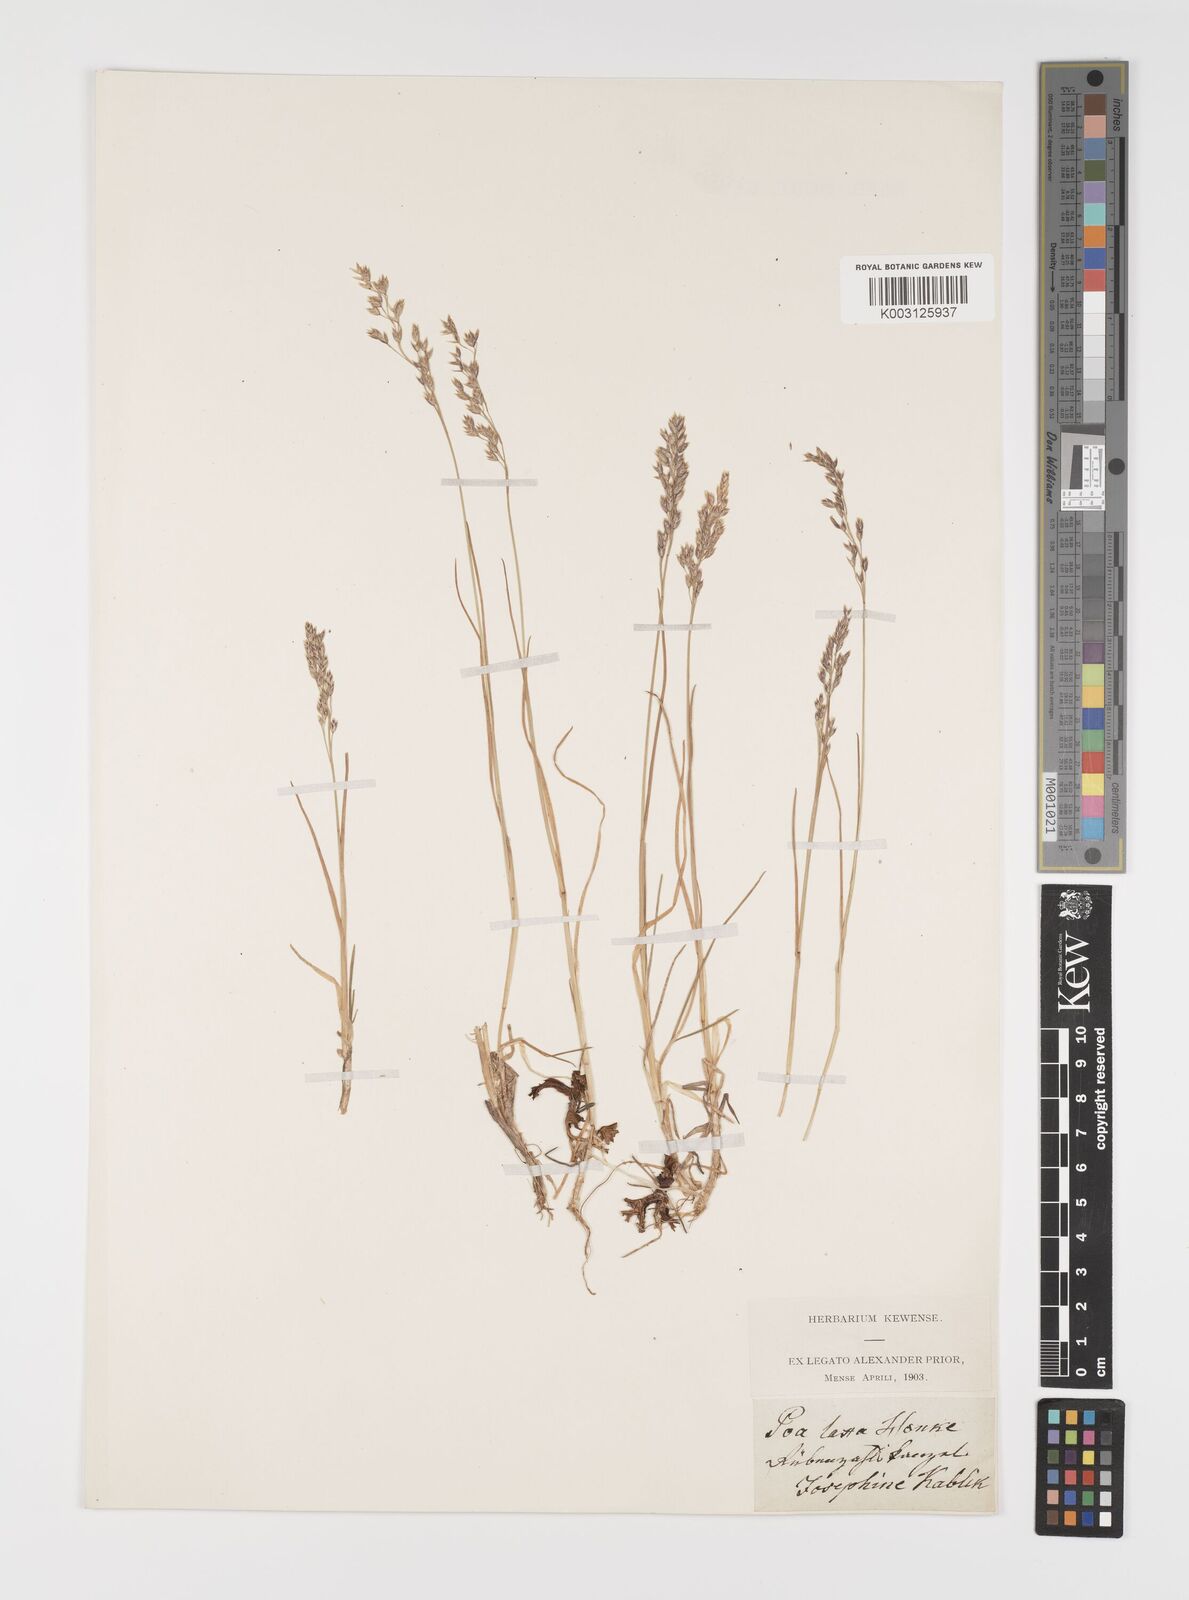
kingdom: Plantae
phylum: Tracheophyta
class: Liliopsida
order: Poales
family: Poaceae
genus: Poa
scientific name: Poa laxa
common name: Lax bluegrass
